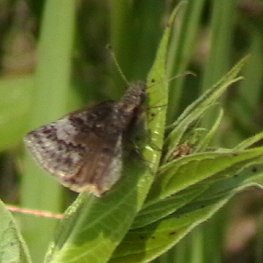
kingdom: Animalia
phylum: Arthropoda
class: Insecta
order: Lepidoptera
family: Hesperiidae
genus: Erynnis
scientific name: Erynnis icelus
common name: Dreamy Duskywing
